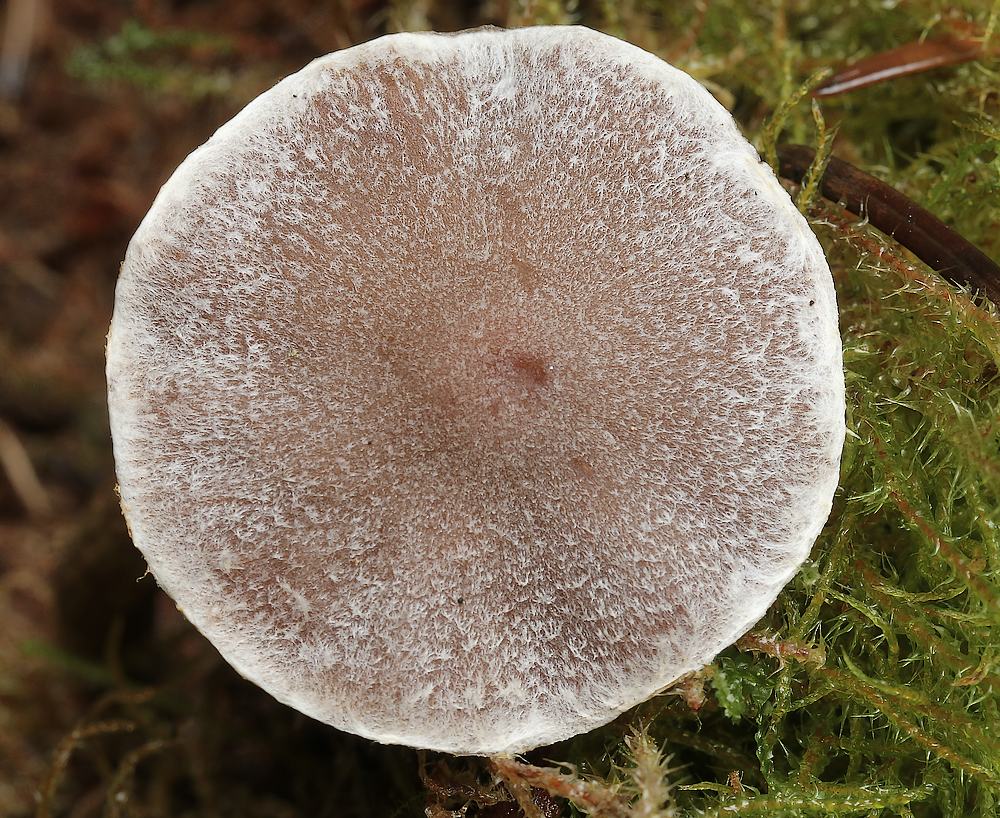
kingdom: Fungi
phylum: Basidiomycota
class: Agaricomycetes
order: Agaricales
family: Cortinariaceae
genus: Cortinarius
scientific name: Cortinarius
